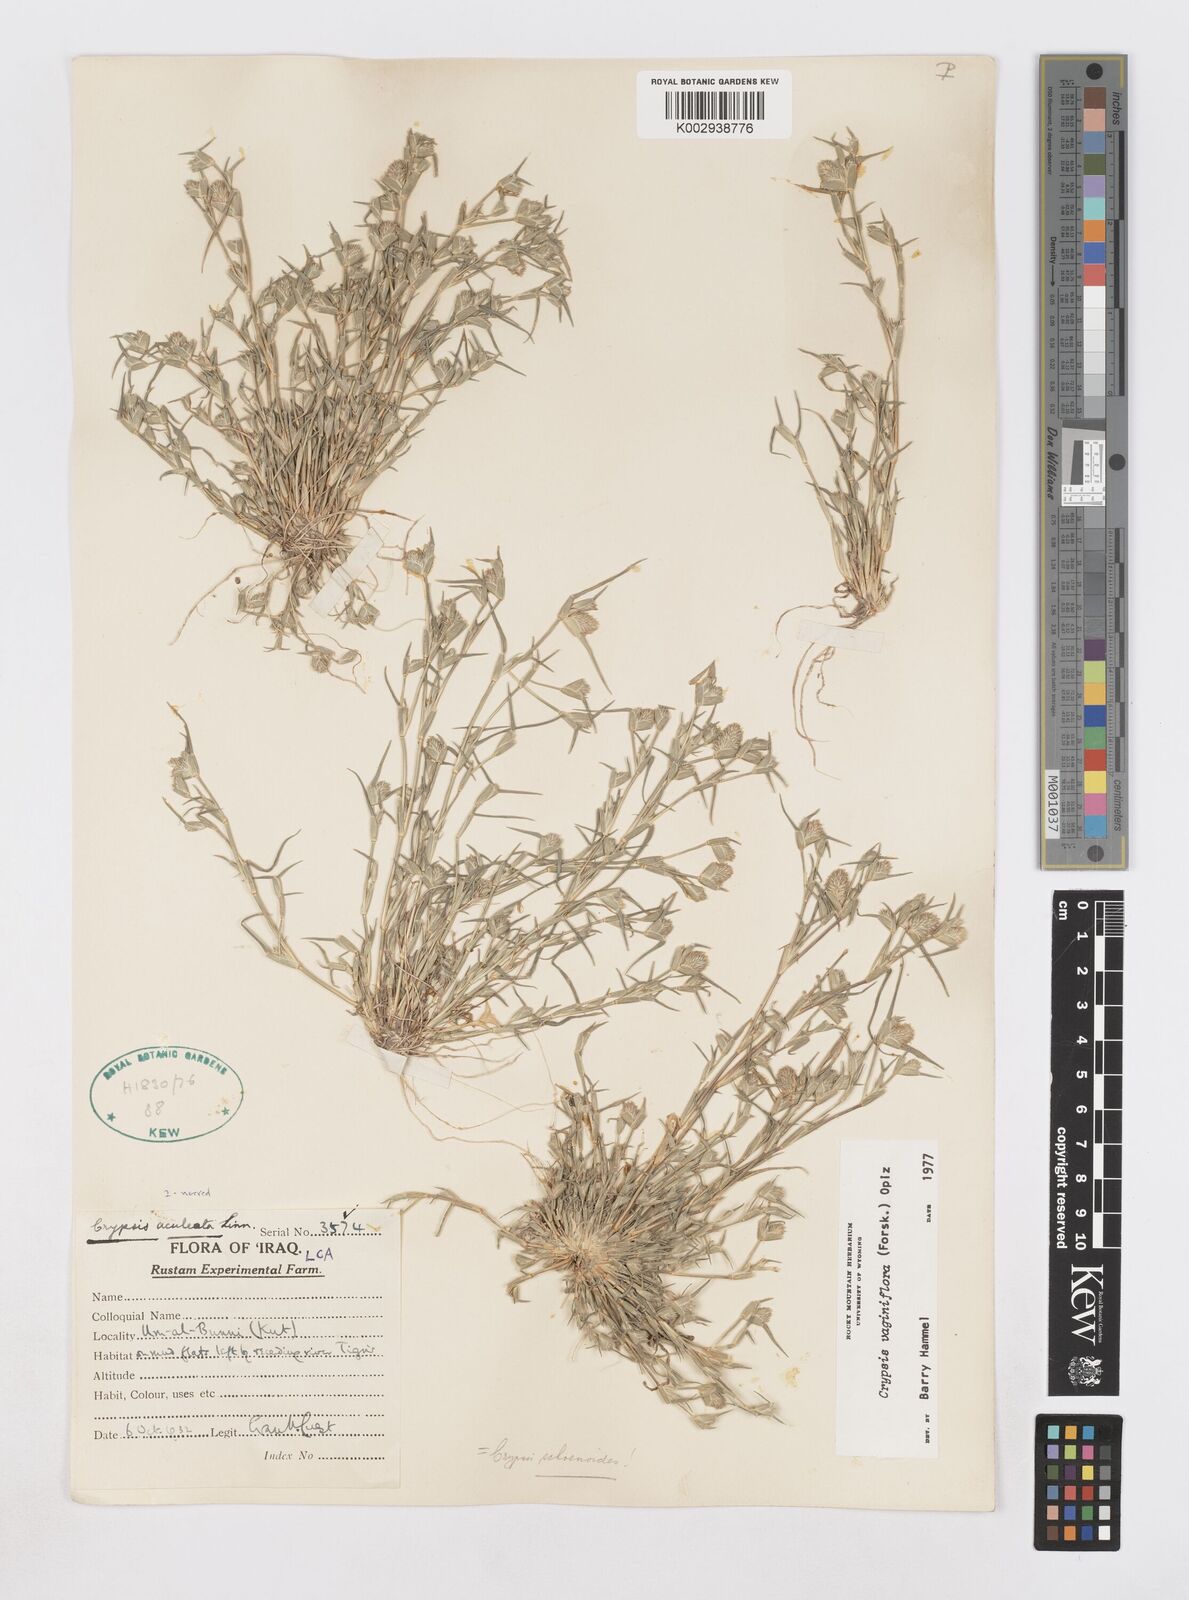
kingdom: Plantae
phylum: Tracheophyta
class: Liliopsida
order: Poales
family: Poaceae
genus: Sporobolus
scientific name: Sporobolus niliacus
